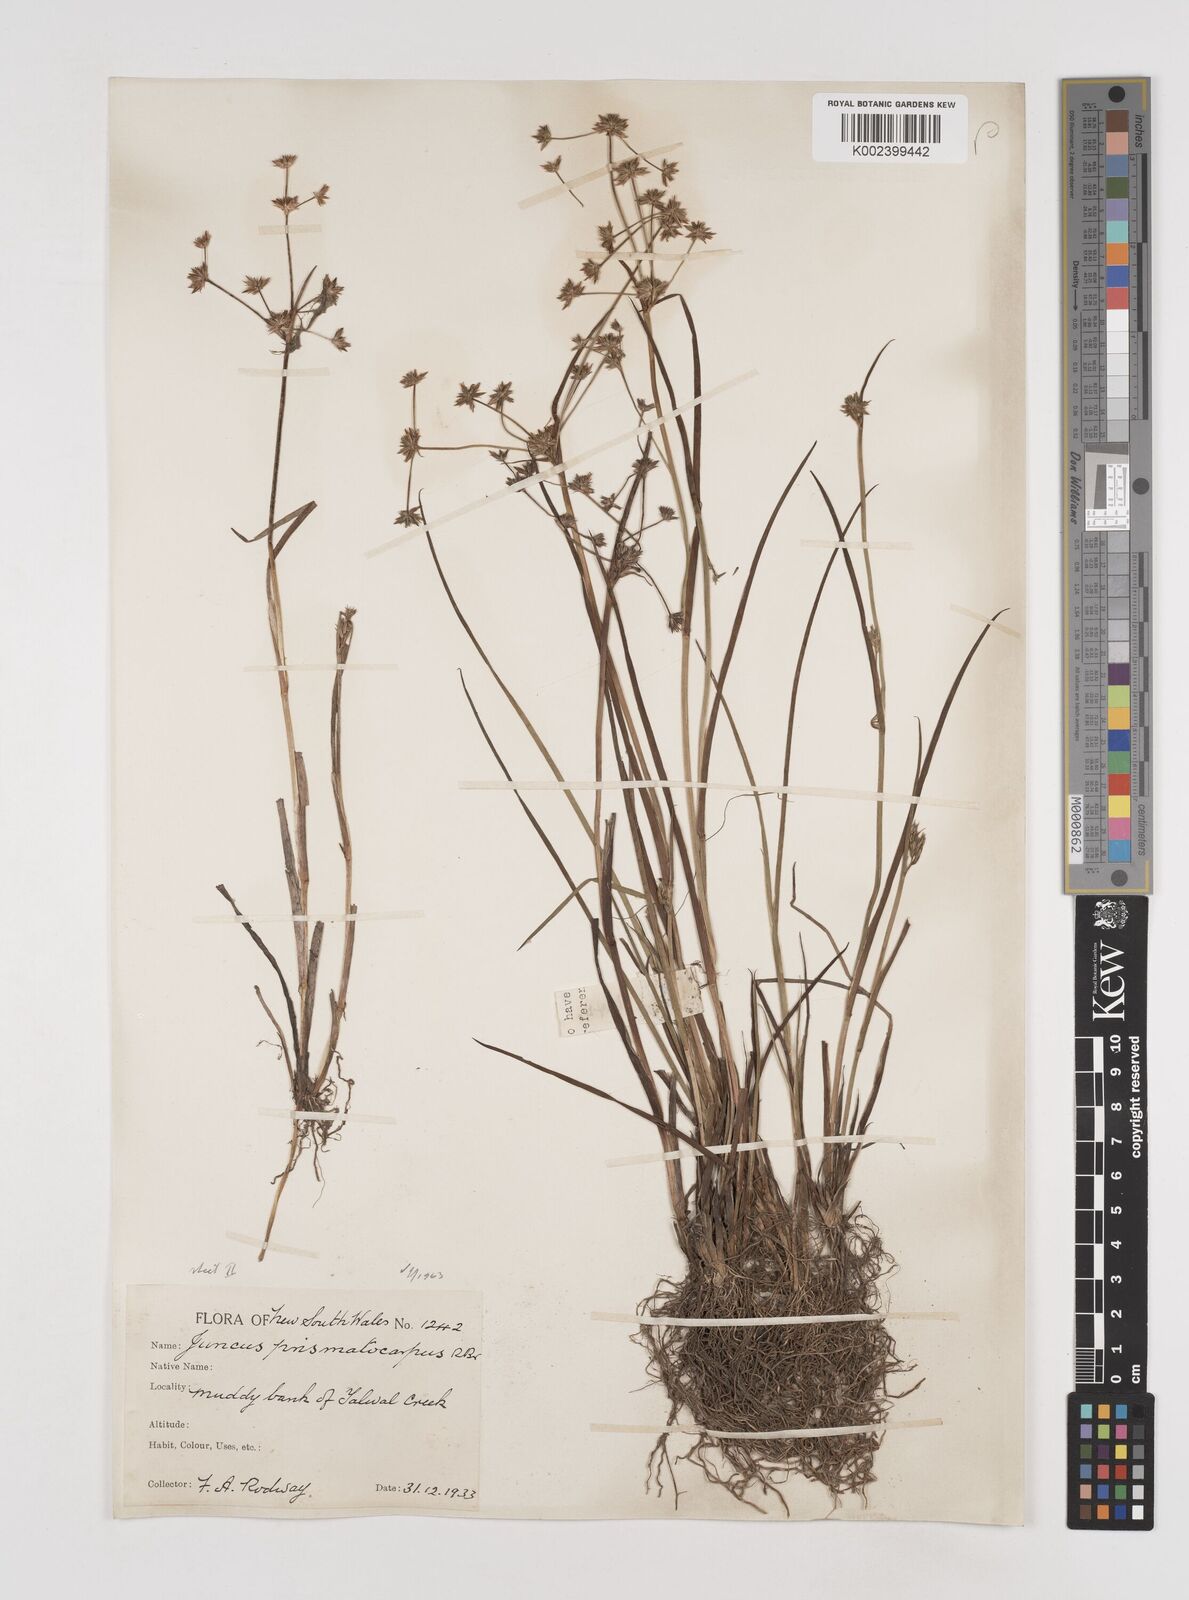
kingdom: Plantae
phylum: Tracheophyta
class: Liliopsida
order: Poales
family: Juncaceae
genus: Juncus
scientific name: Juncus prismatocarpus
